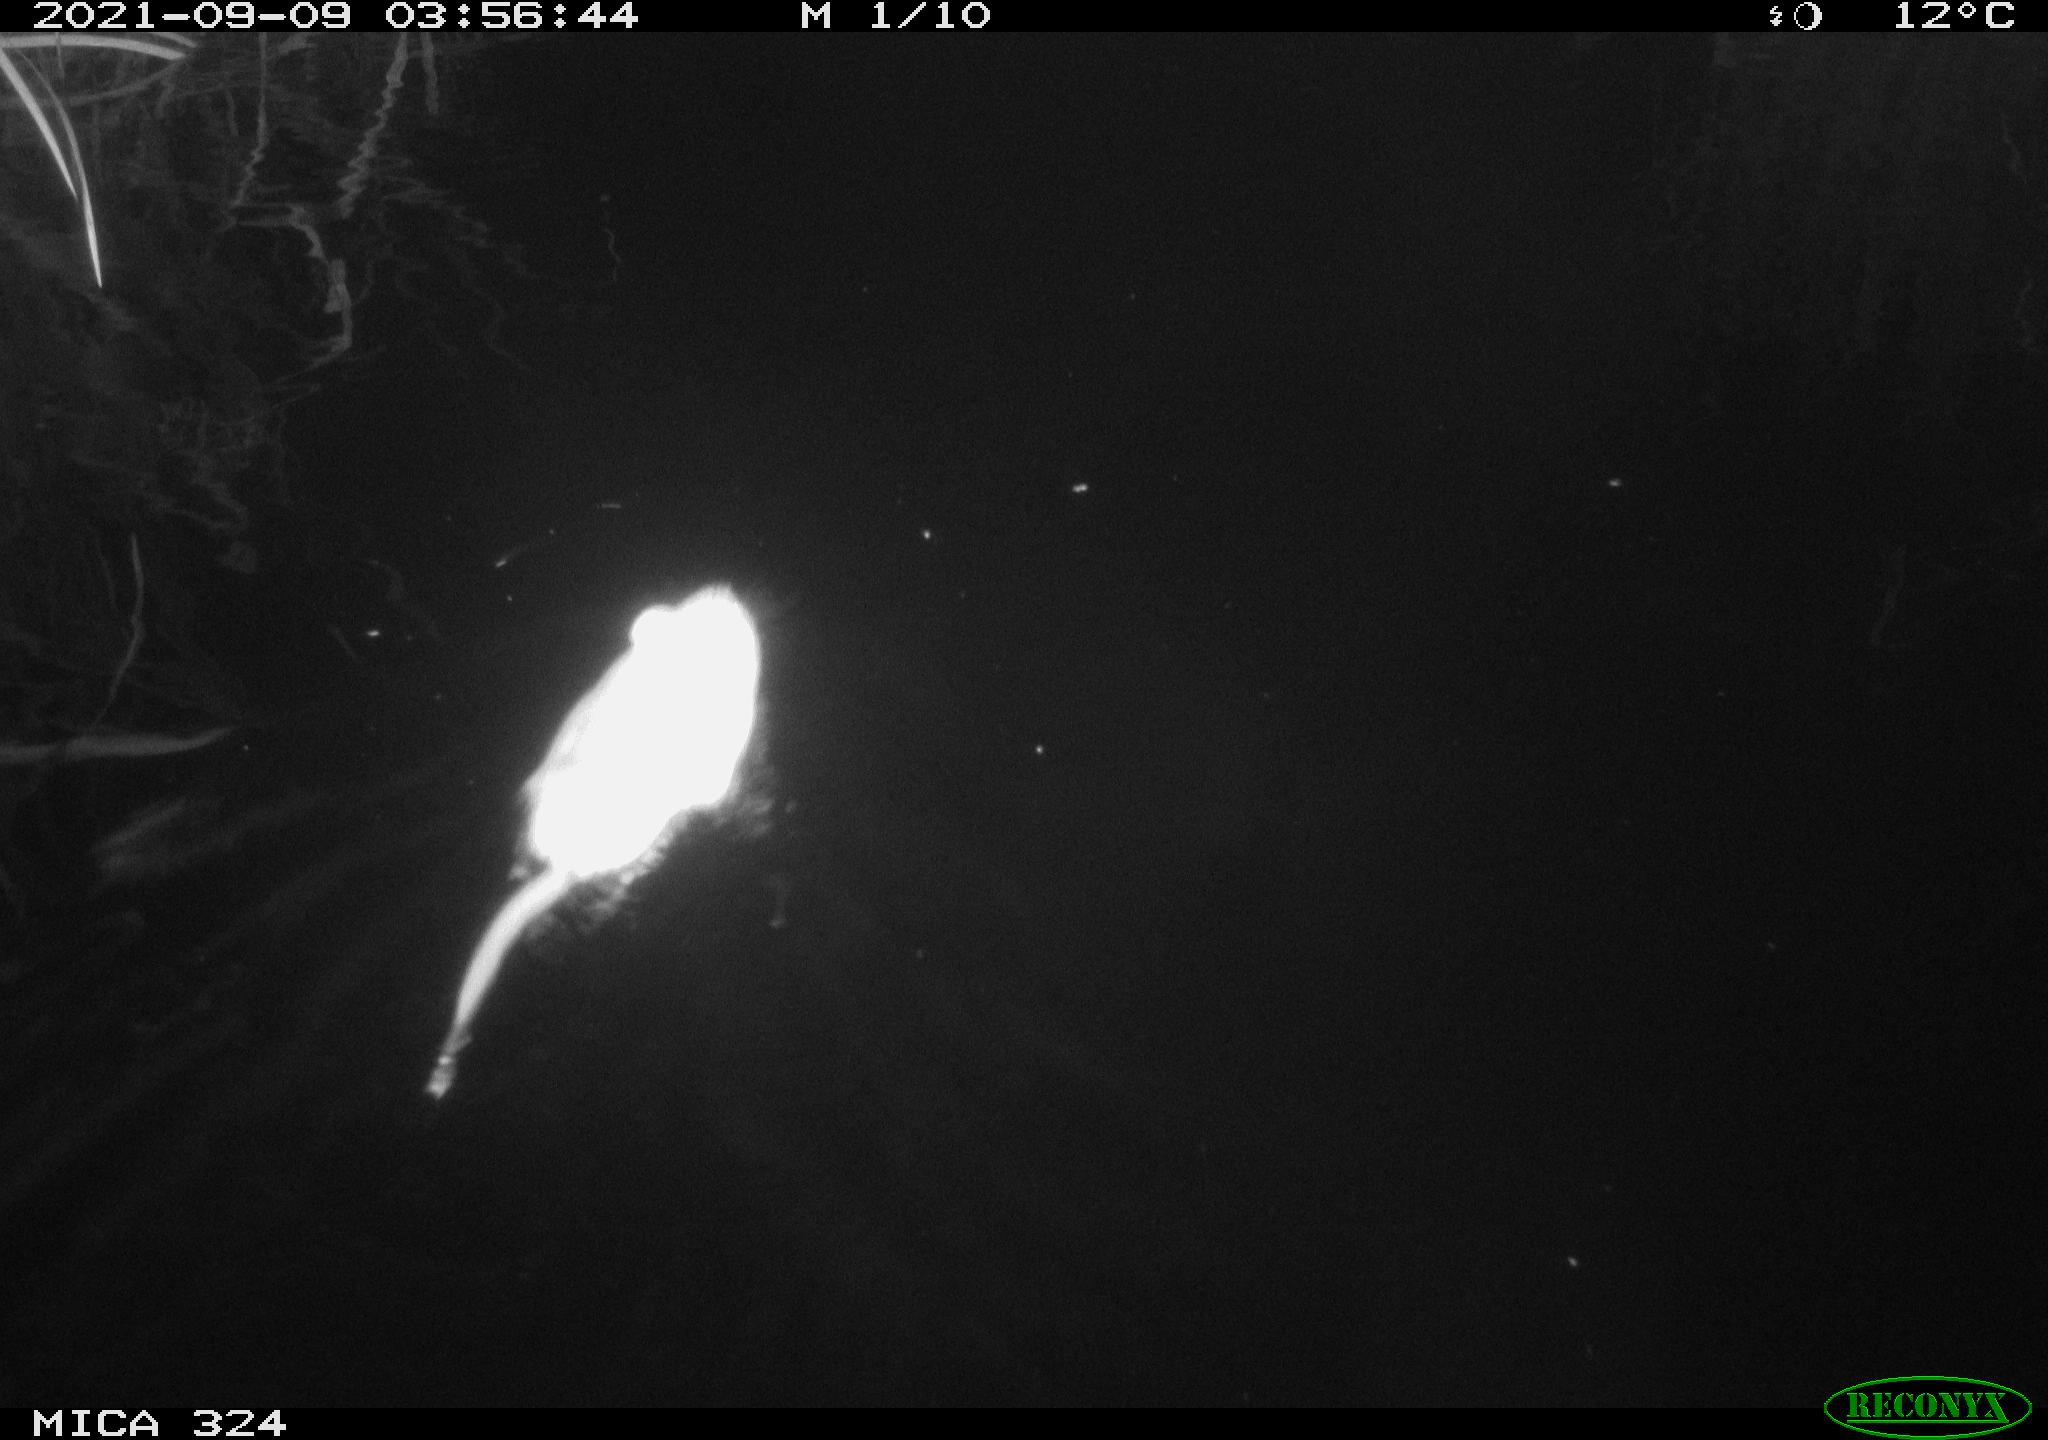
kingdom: Animalia
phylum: Chordata
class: Mammalia
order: Rodentia
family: Cricetidae
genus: Ondatra
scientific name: Ondatra zibethicus
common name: Muskrat
